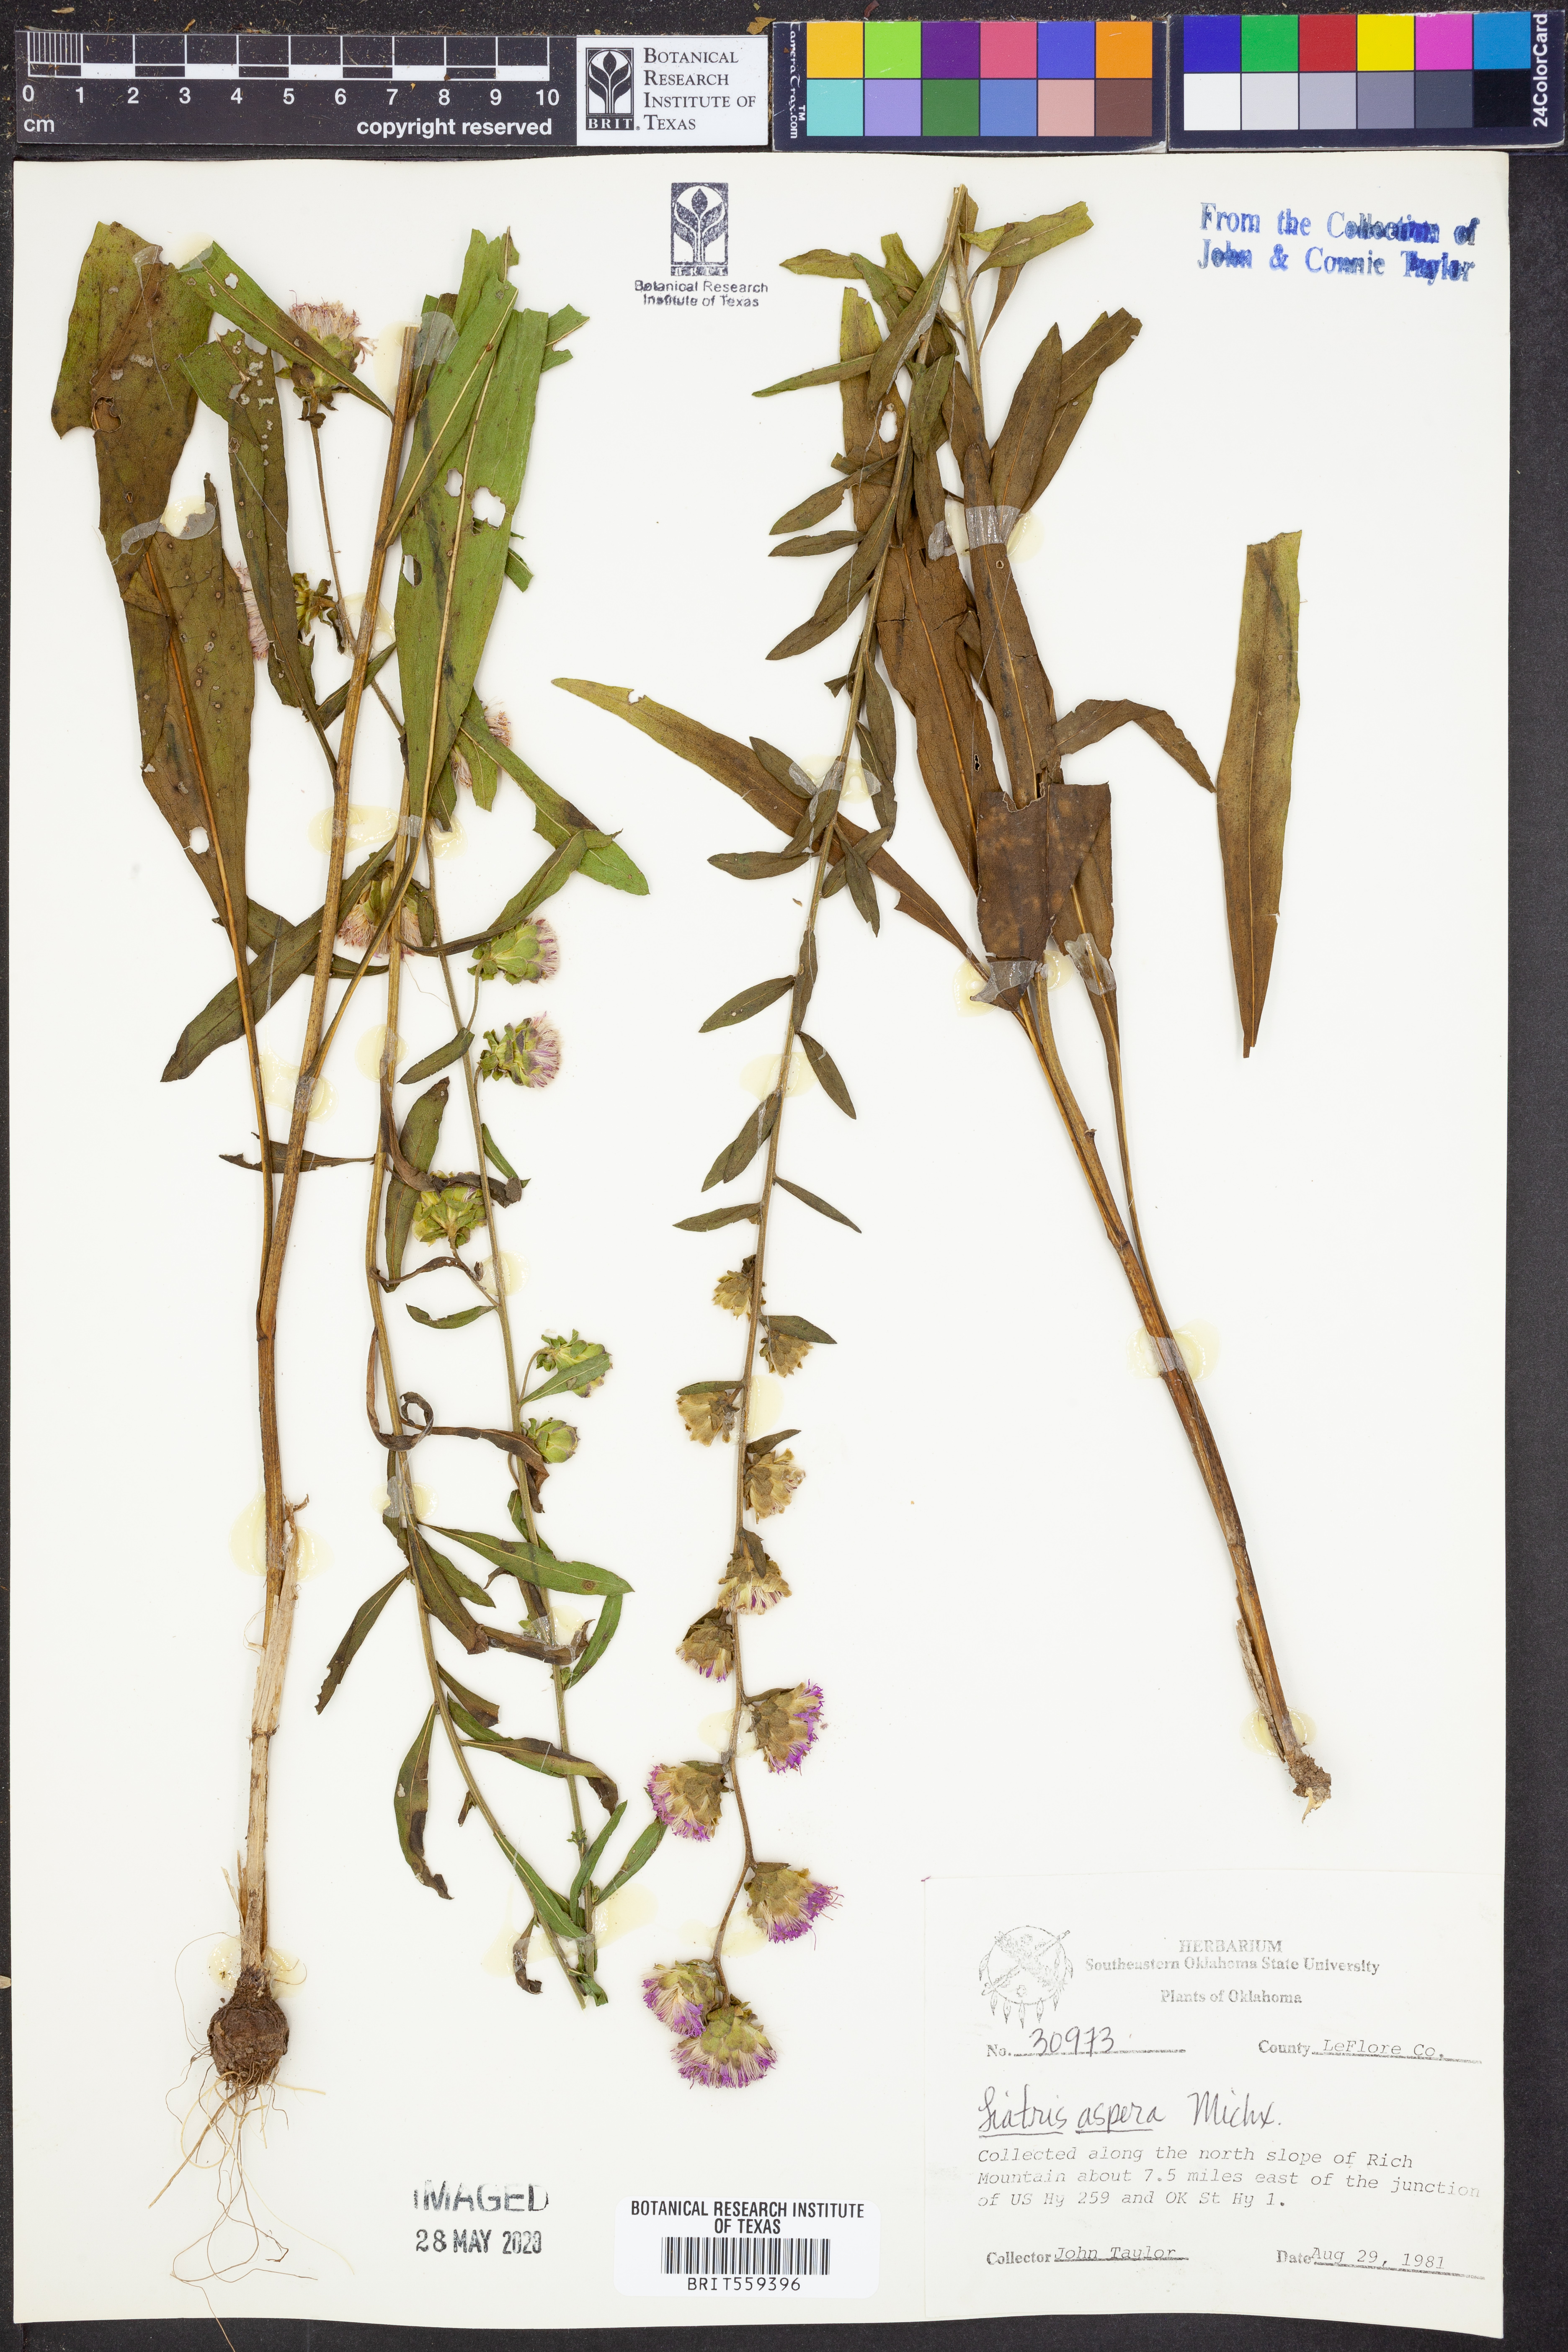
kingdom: Plantae
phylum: Tracheophyta
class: Magnoliopsida
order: Asterales
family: Asteraceae
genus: Liatris
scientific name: Liatris aspera
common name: Lacerate blazing-star
